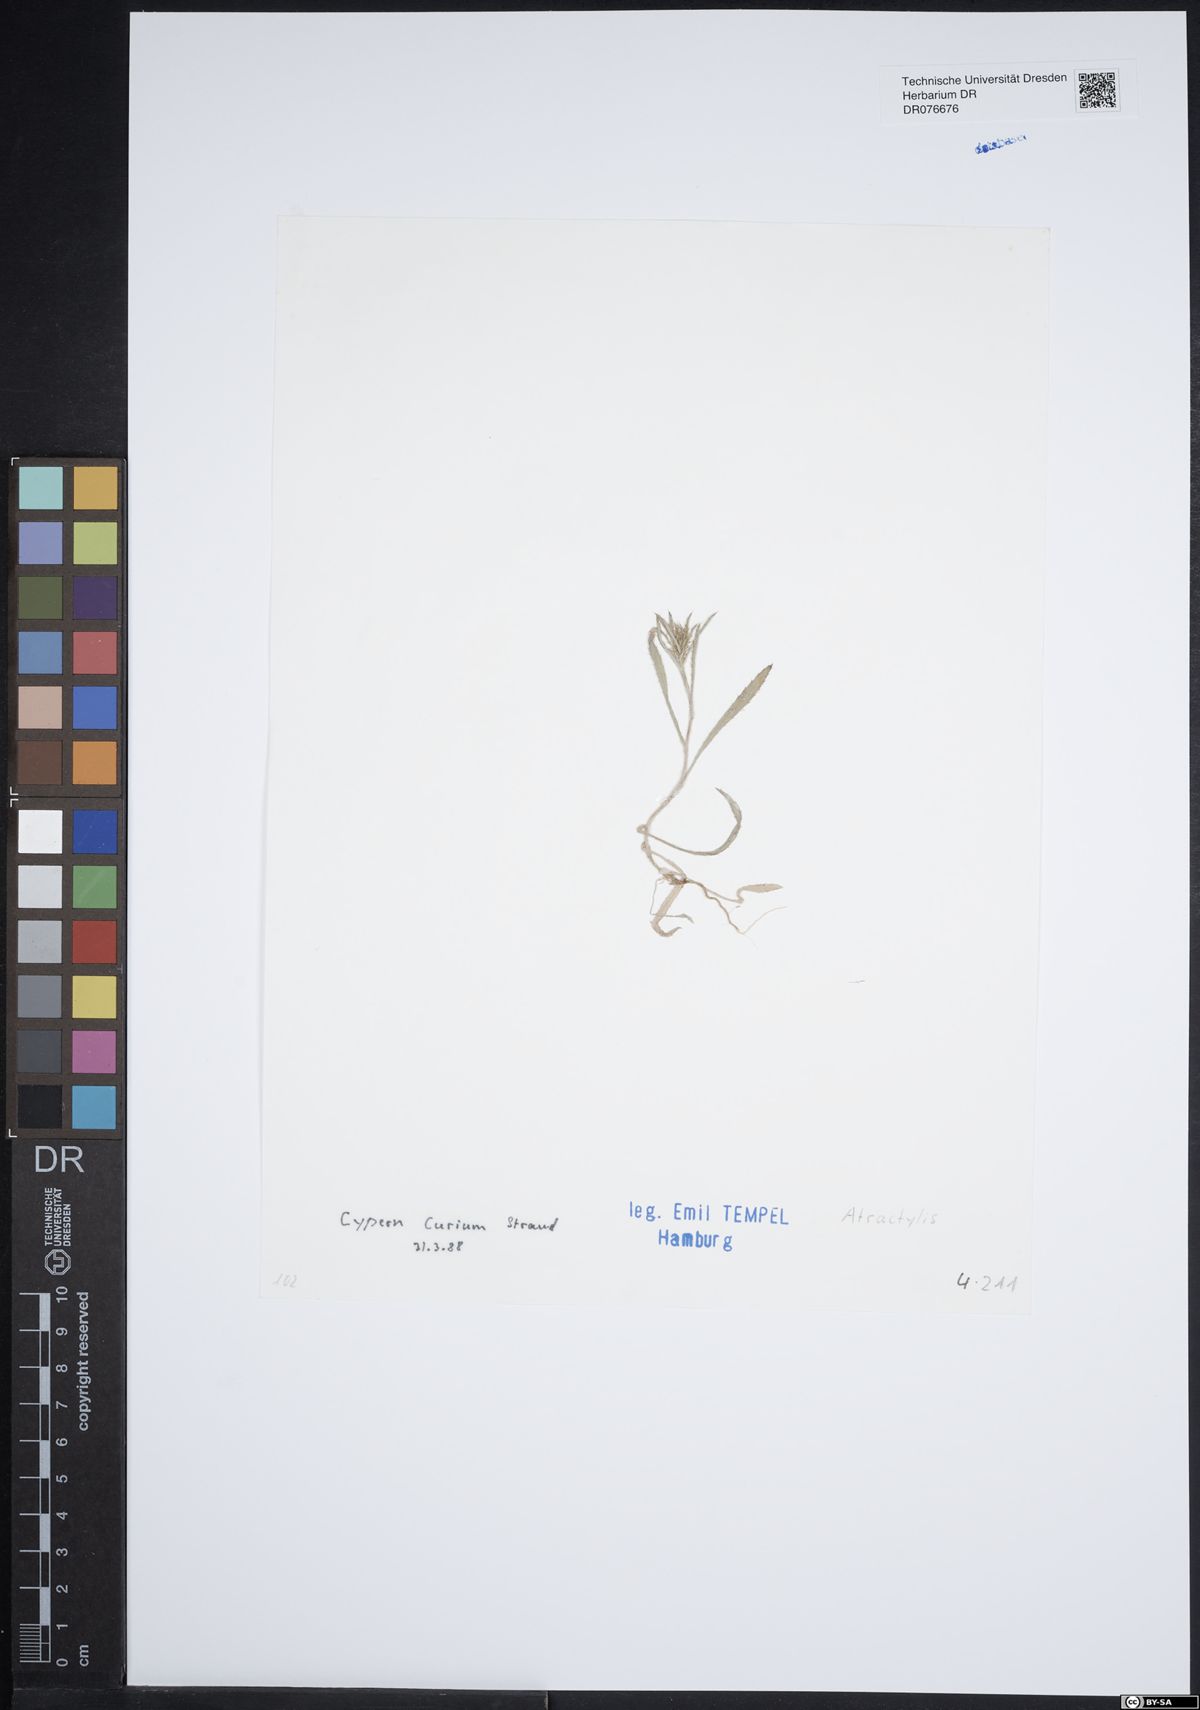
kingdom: Plantae
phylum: Tracheophyta
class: Magnoliopsida
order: Asterales
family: Asteraceae
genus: Atractylis
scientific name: Atractylis
